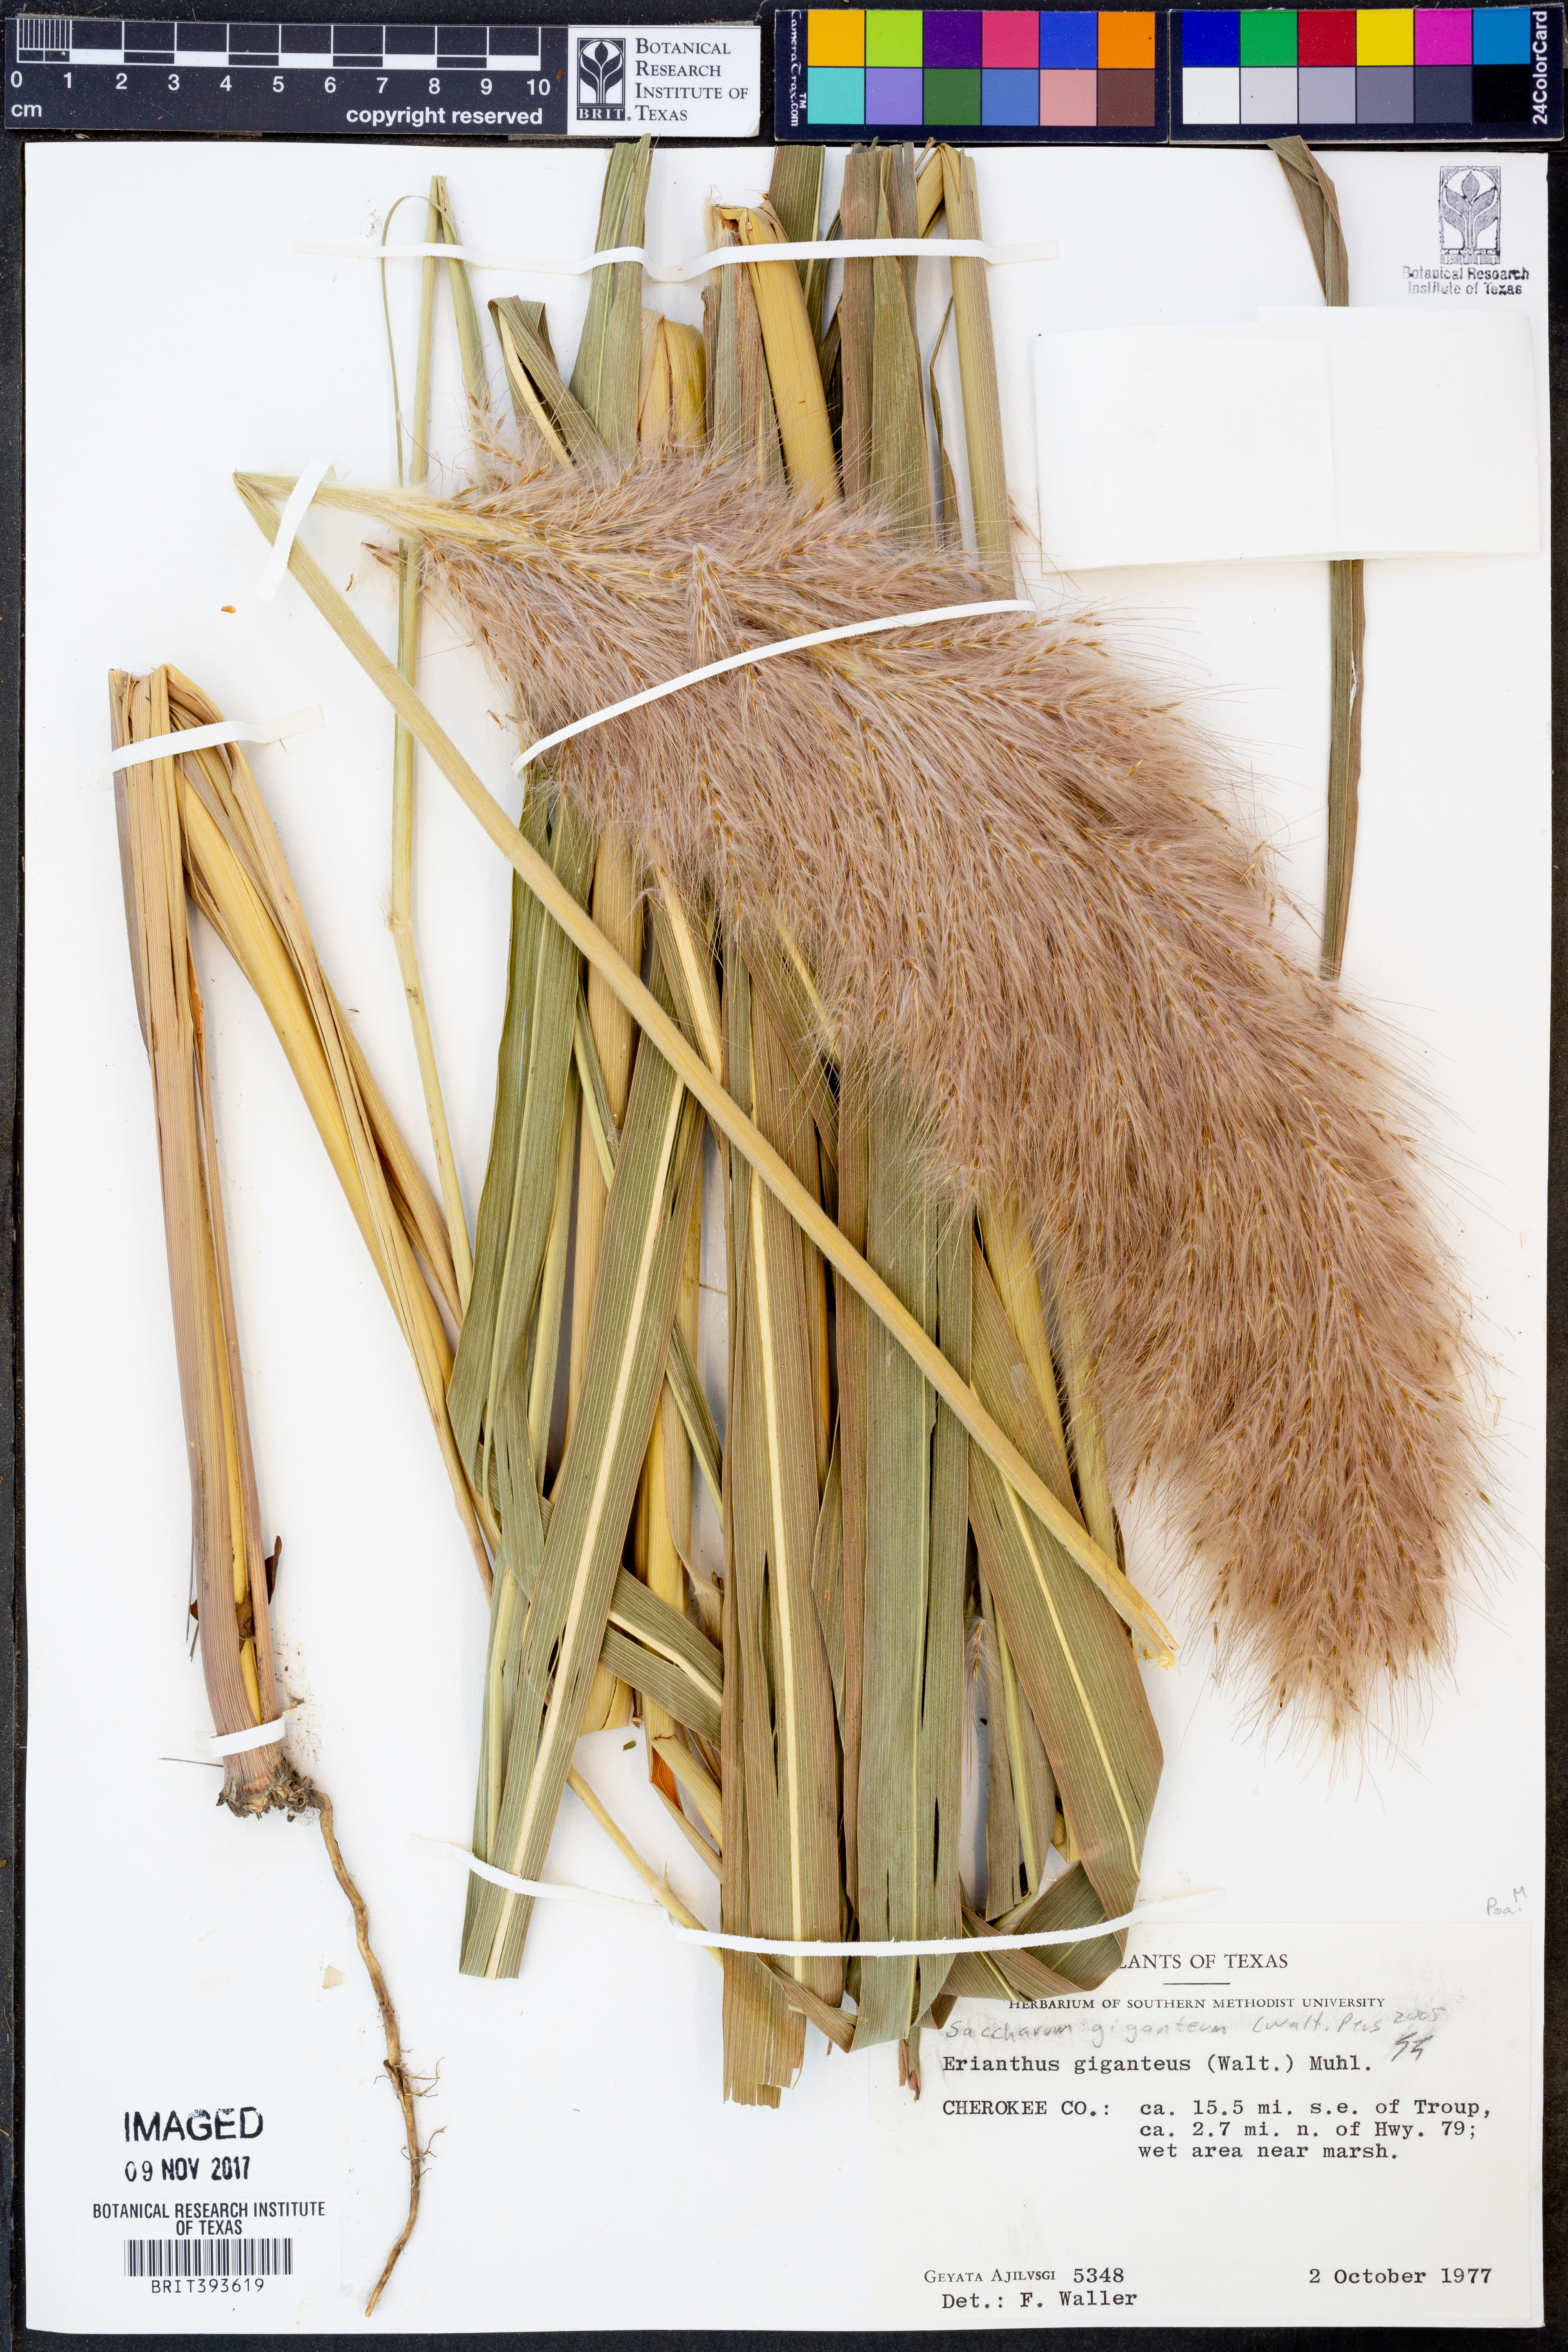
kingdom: Plantae
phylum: Tracheophyta
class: Liliopsida
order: Poales
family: Poaceae
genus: Erianthus
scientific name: Erianthus giganteus
